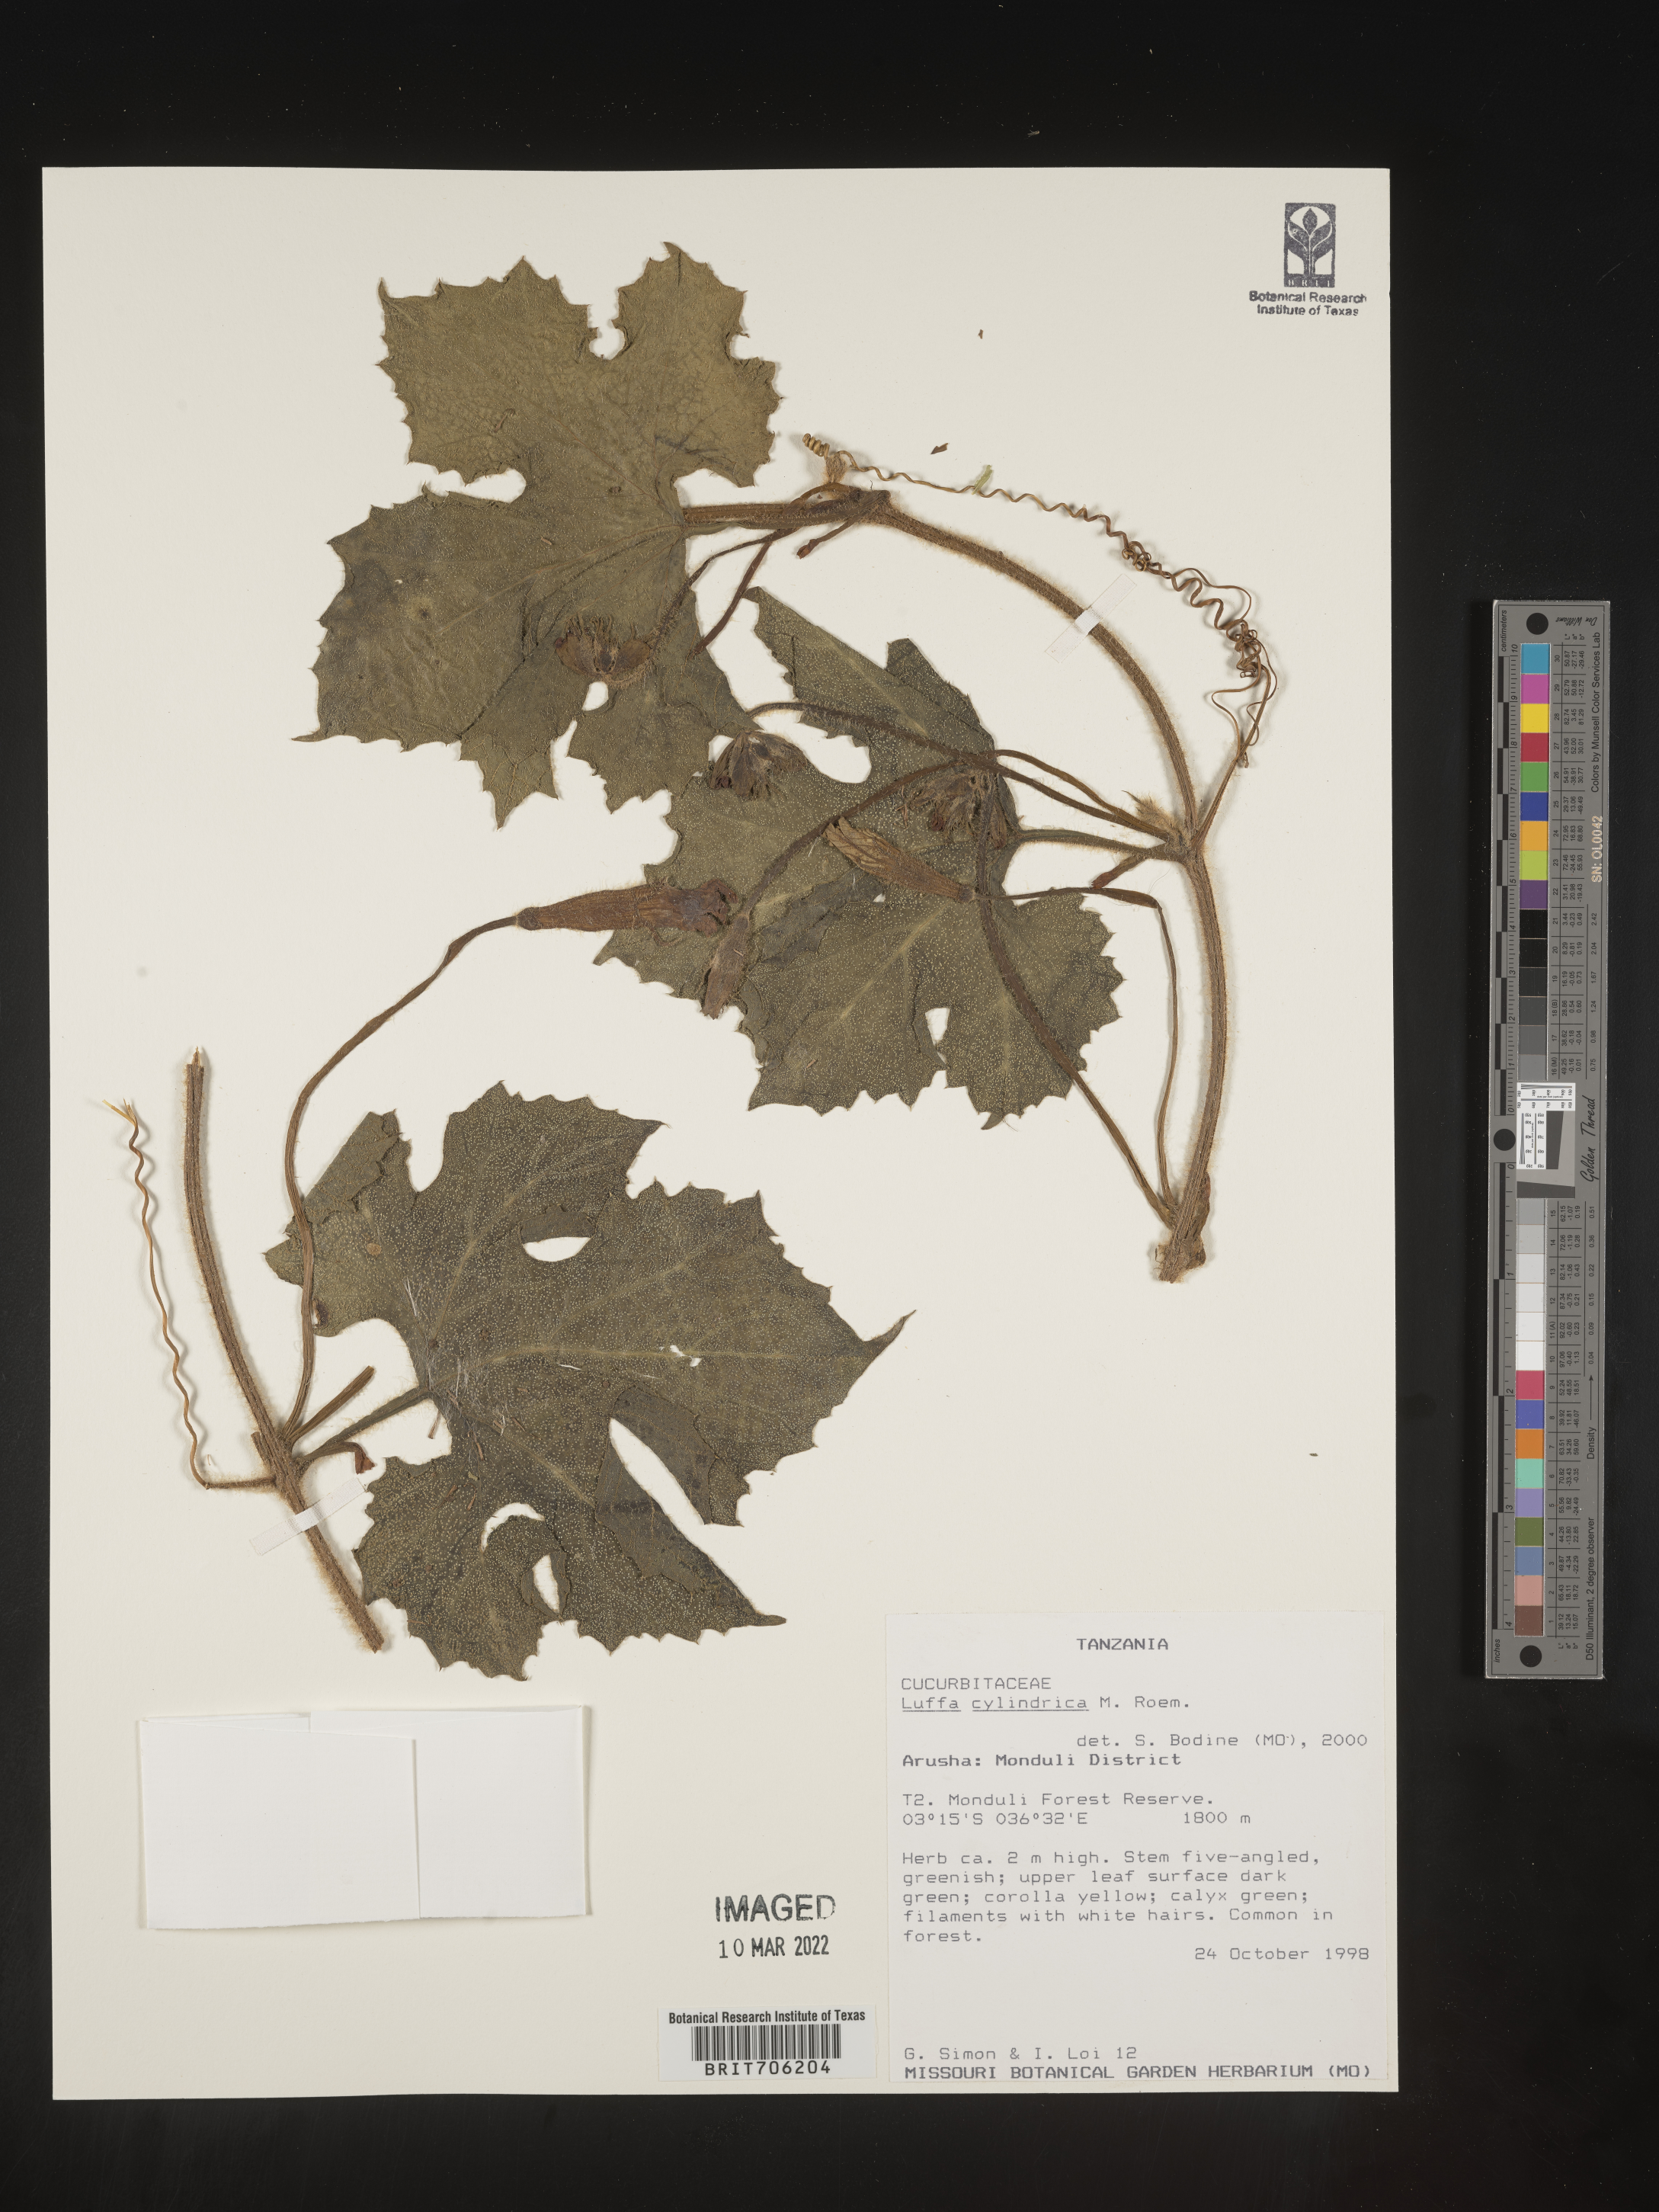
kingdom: Plantae
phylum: Tracheophyta
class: Magnoliopsida
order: Cucurbitales
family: Cucurbitaceae
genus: Luffa
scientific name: Luffa
